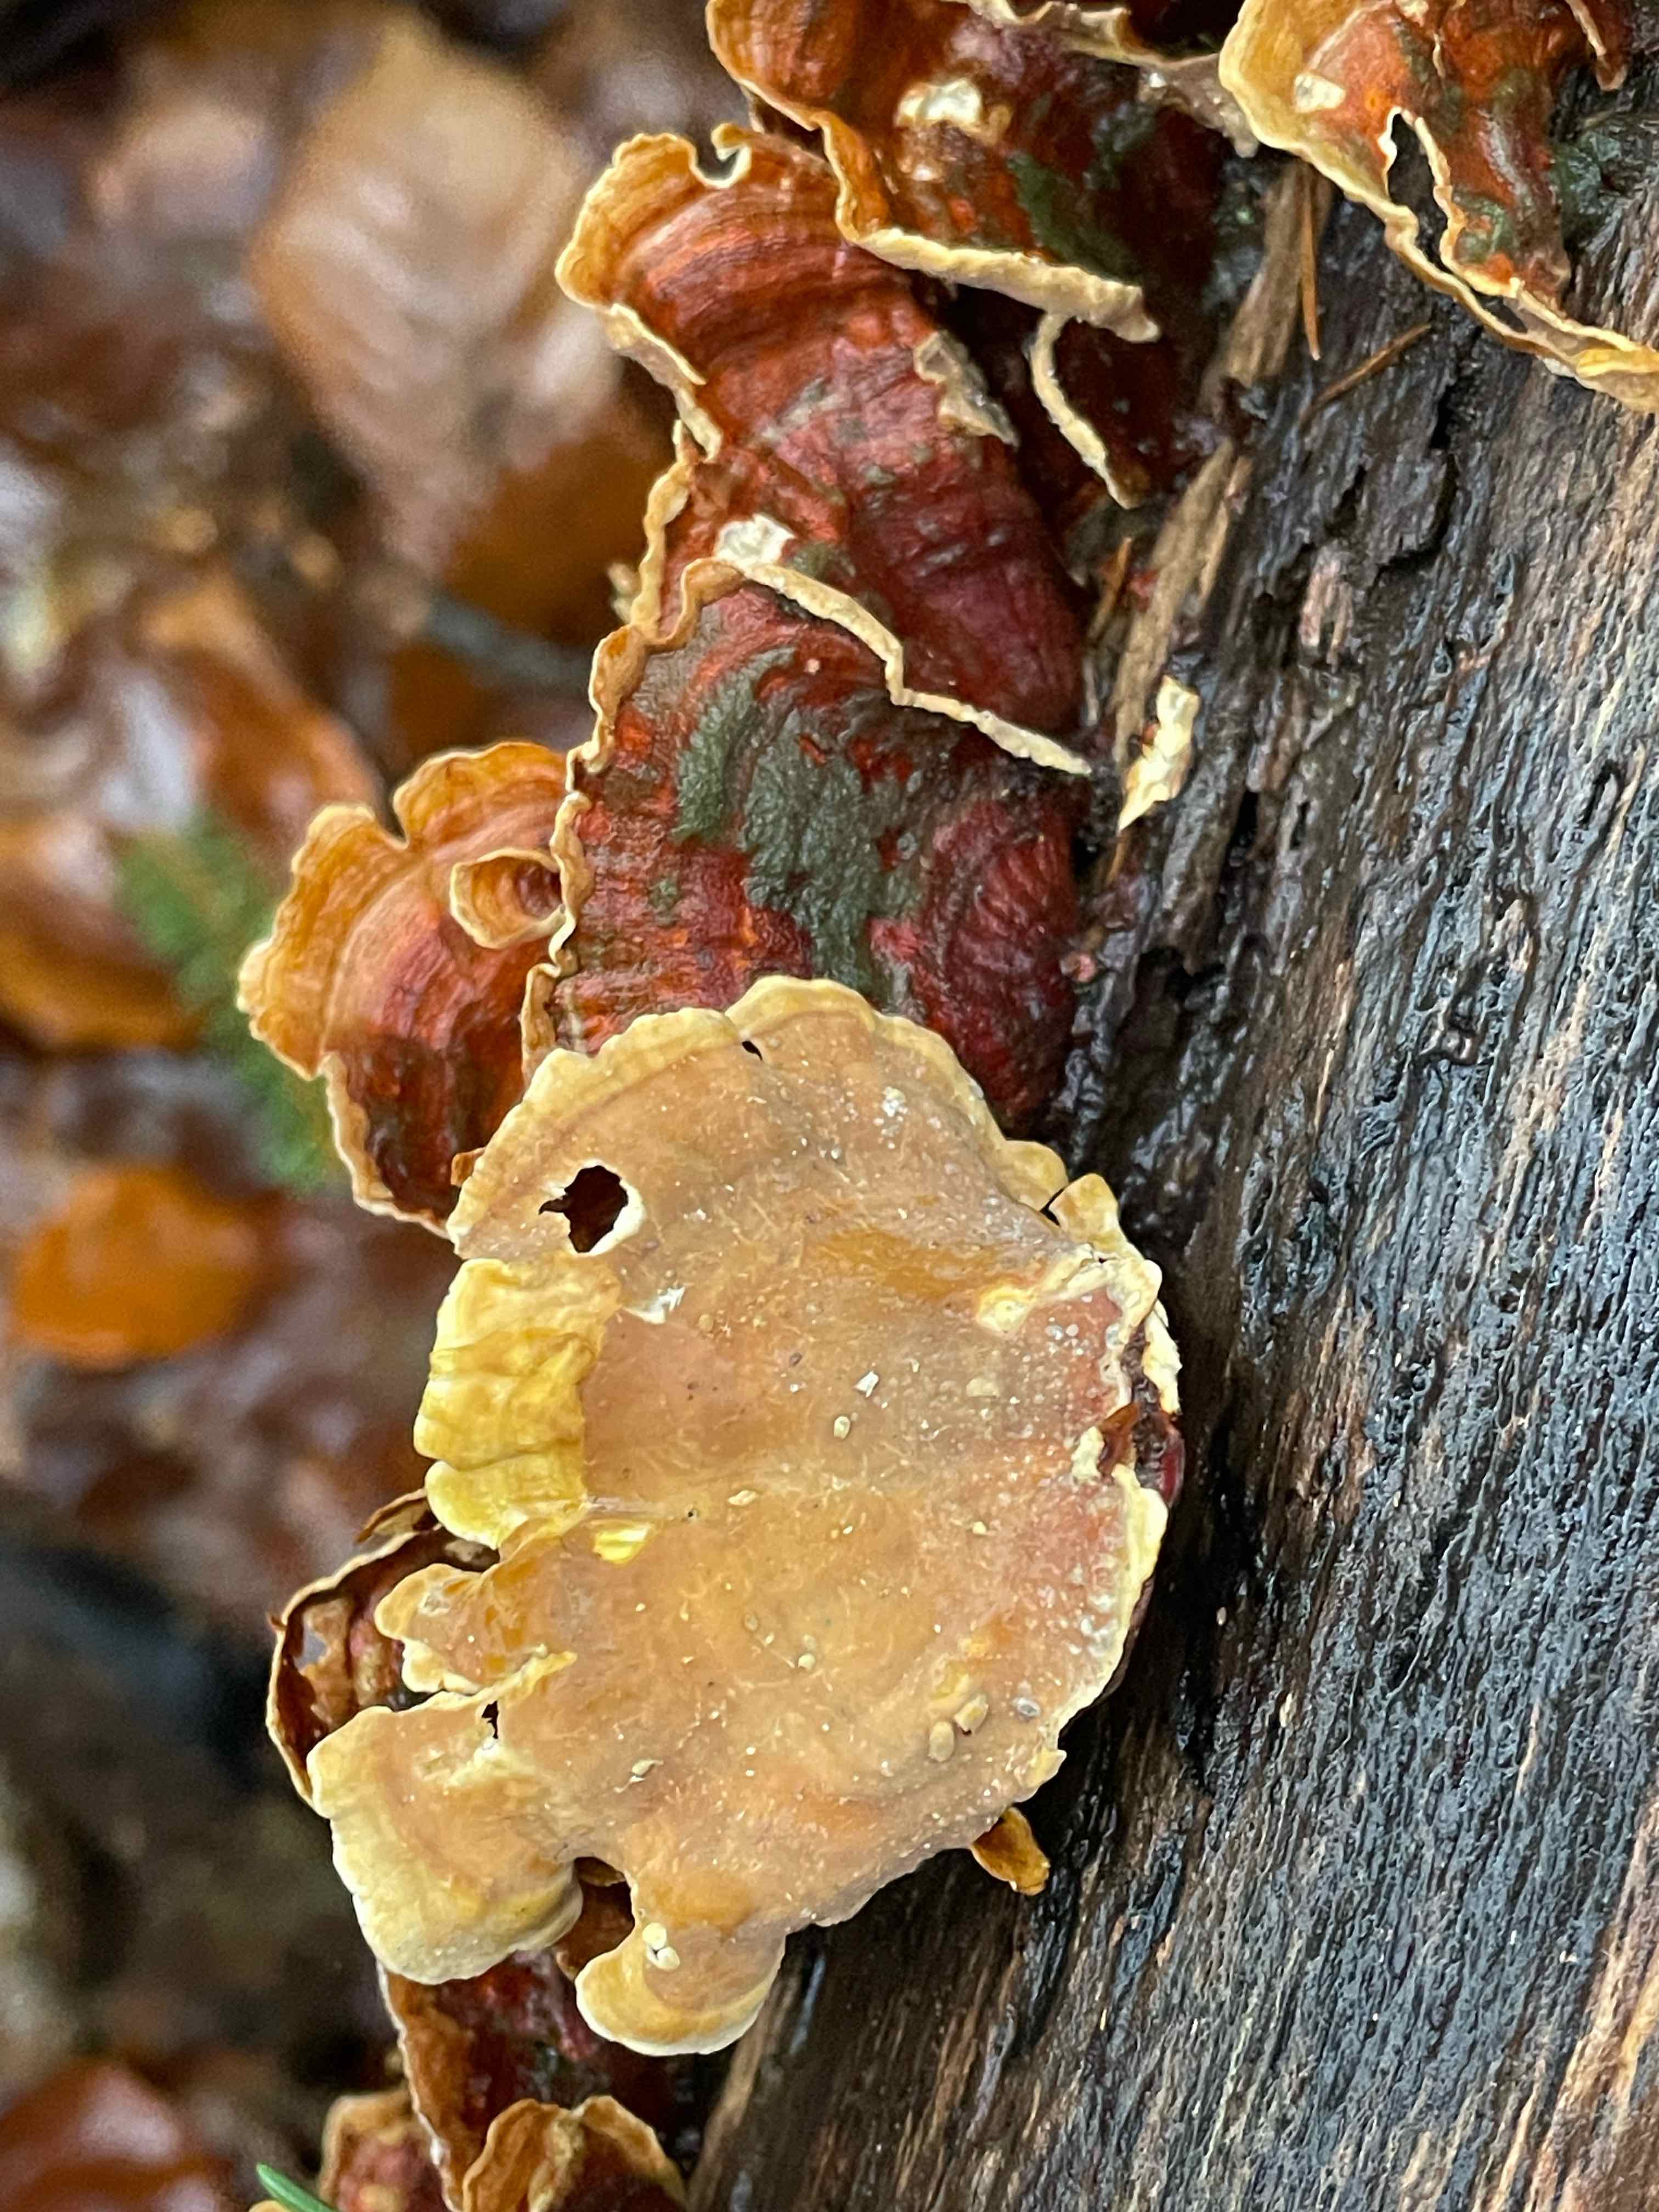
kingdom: Fungi
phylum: Basidiomycota
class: Agaricomycetes
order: Russulales
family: Stereaceae
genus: Stereum
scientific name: Stereum subtomentosum
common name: smuk lædersvamp
